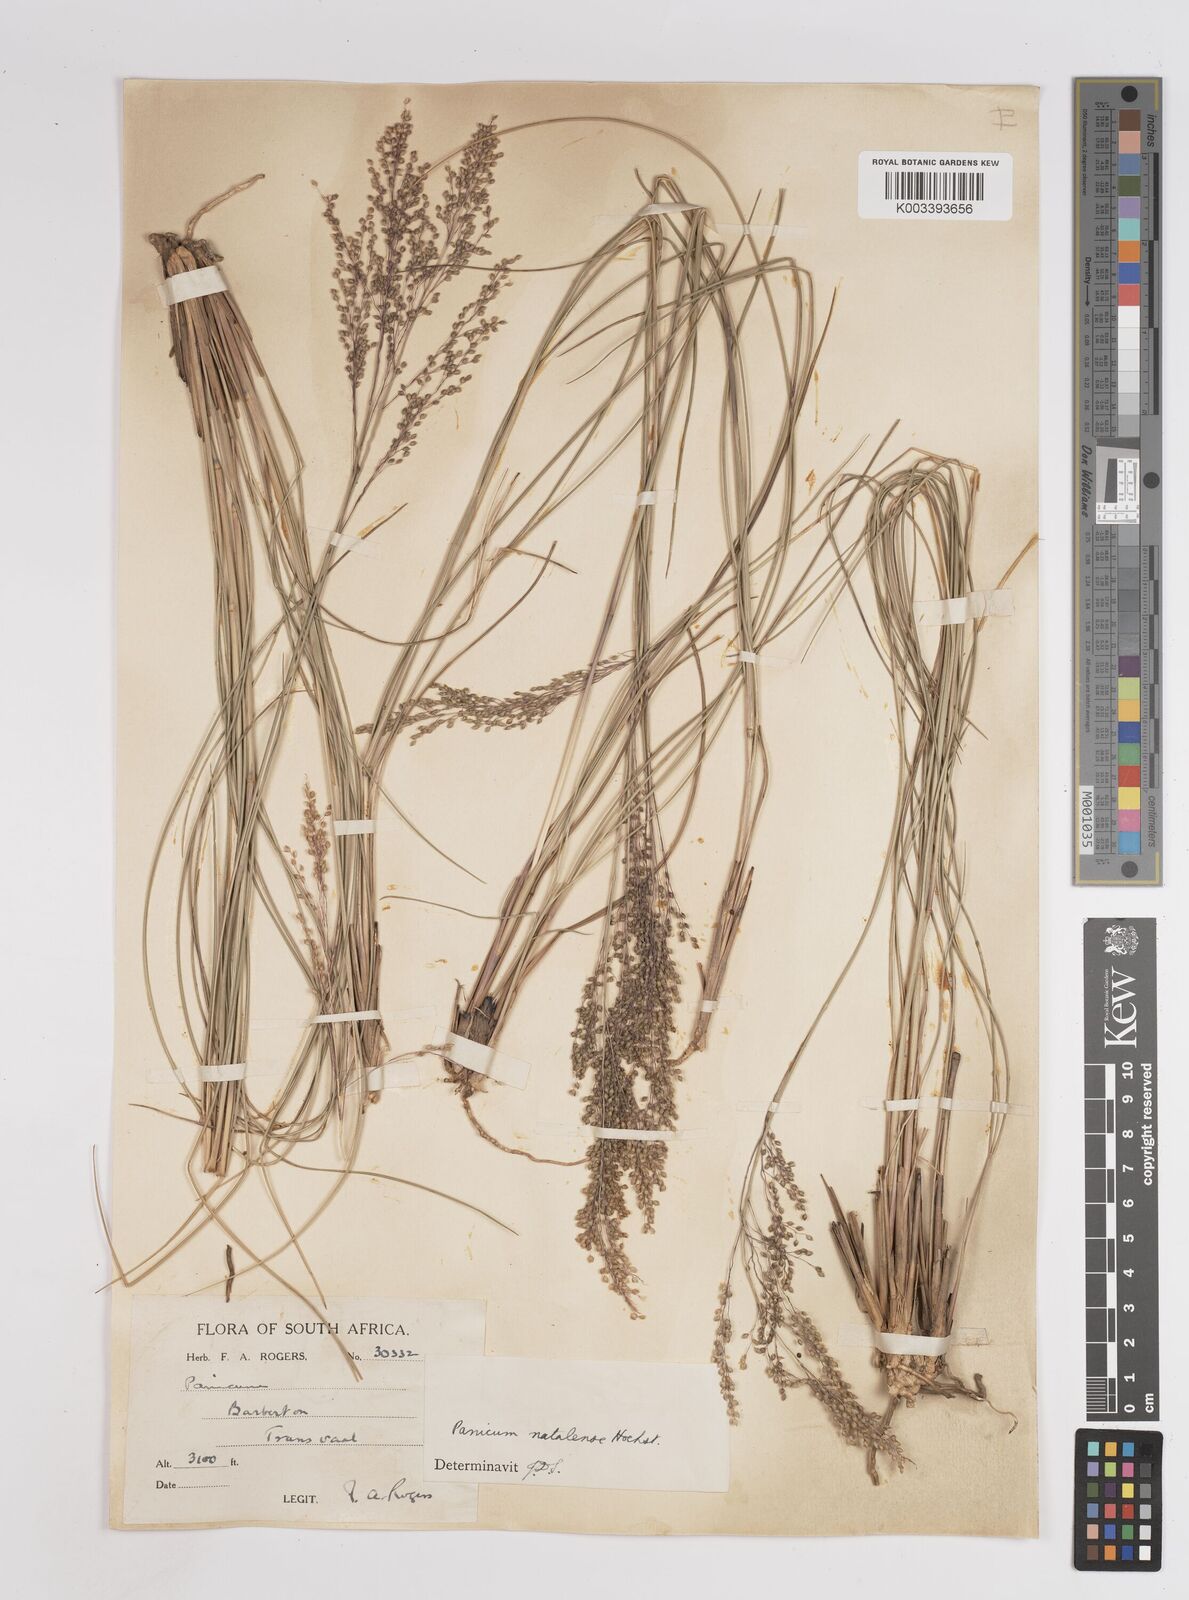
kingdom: Plantae
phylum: Tracheophyta
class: Liliopsida
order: Poales
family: Poaceae
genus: Trichanthecium
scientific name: Trichanthecium natalense
